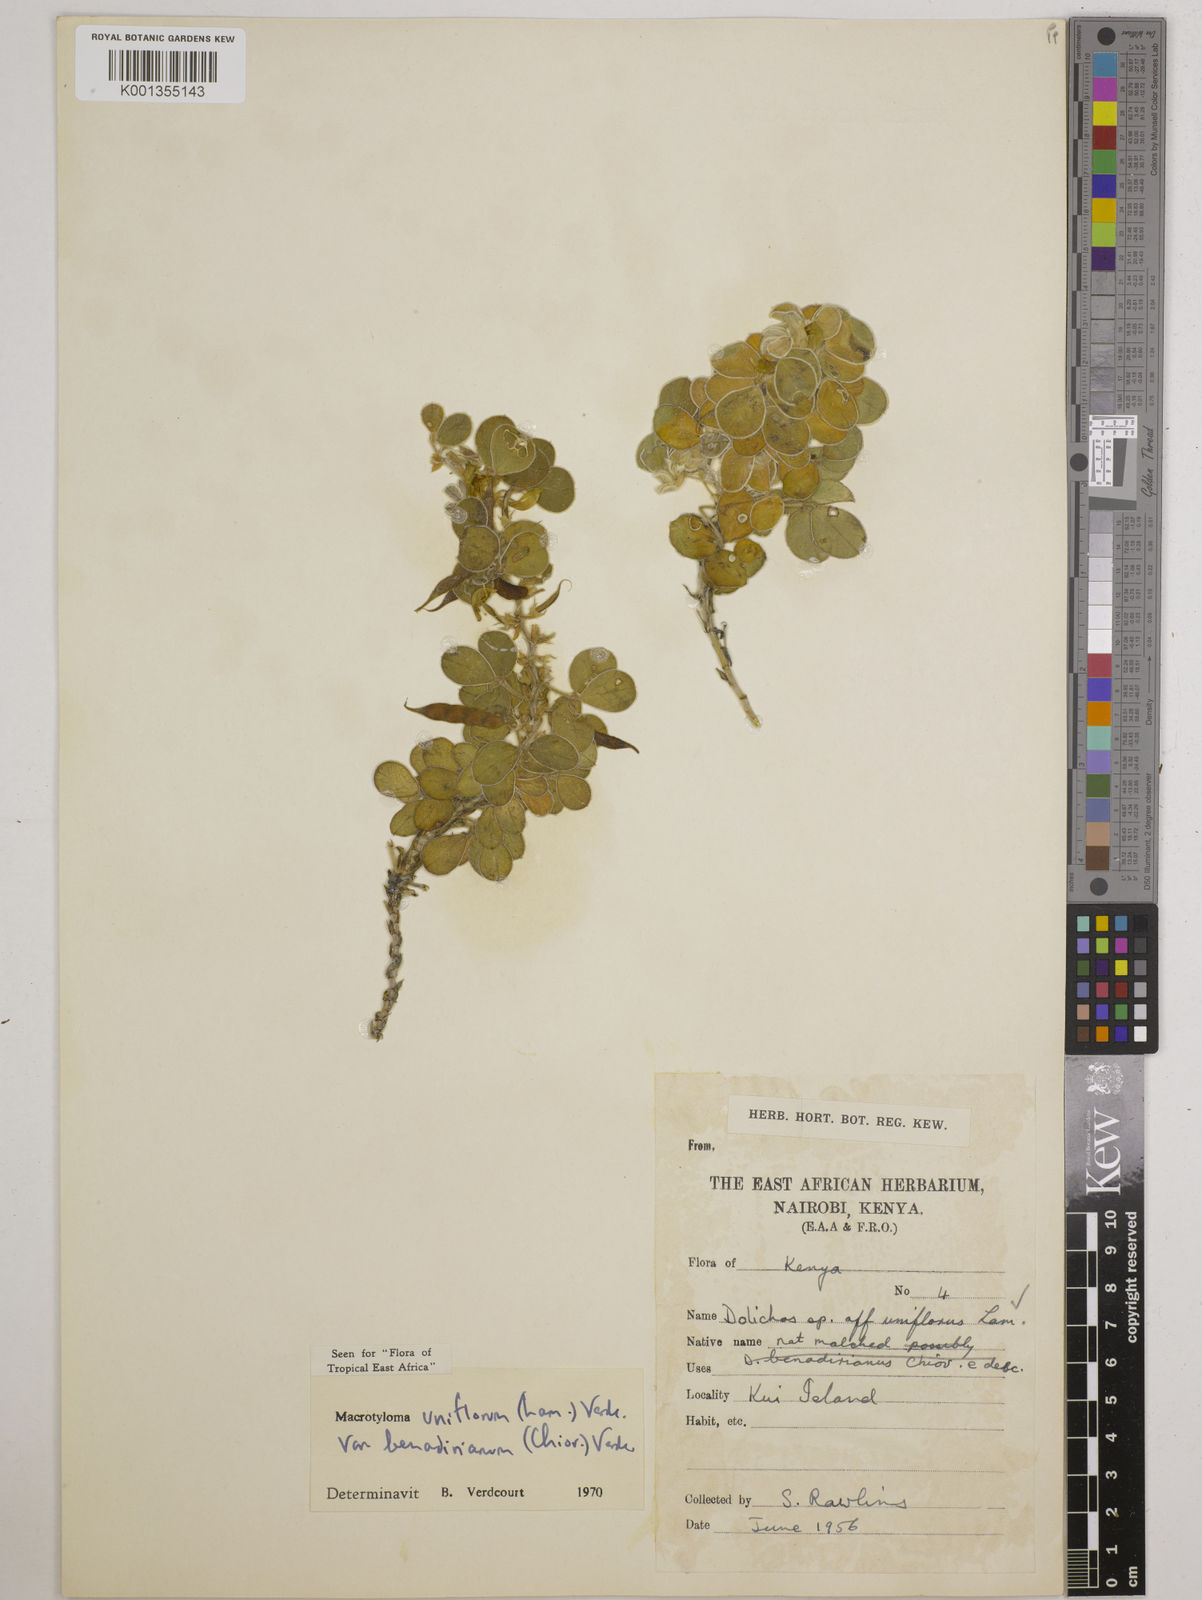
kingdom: Plantae
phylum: Tracheophyta
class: Magnoliopsida
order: Fabales
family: Fabaceae
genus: Macrotyloma
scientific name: Macrotyloma
